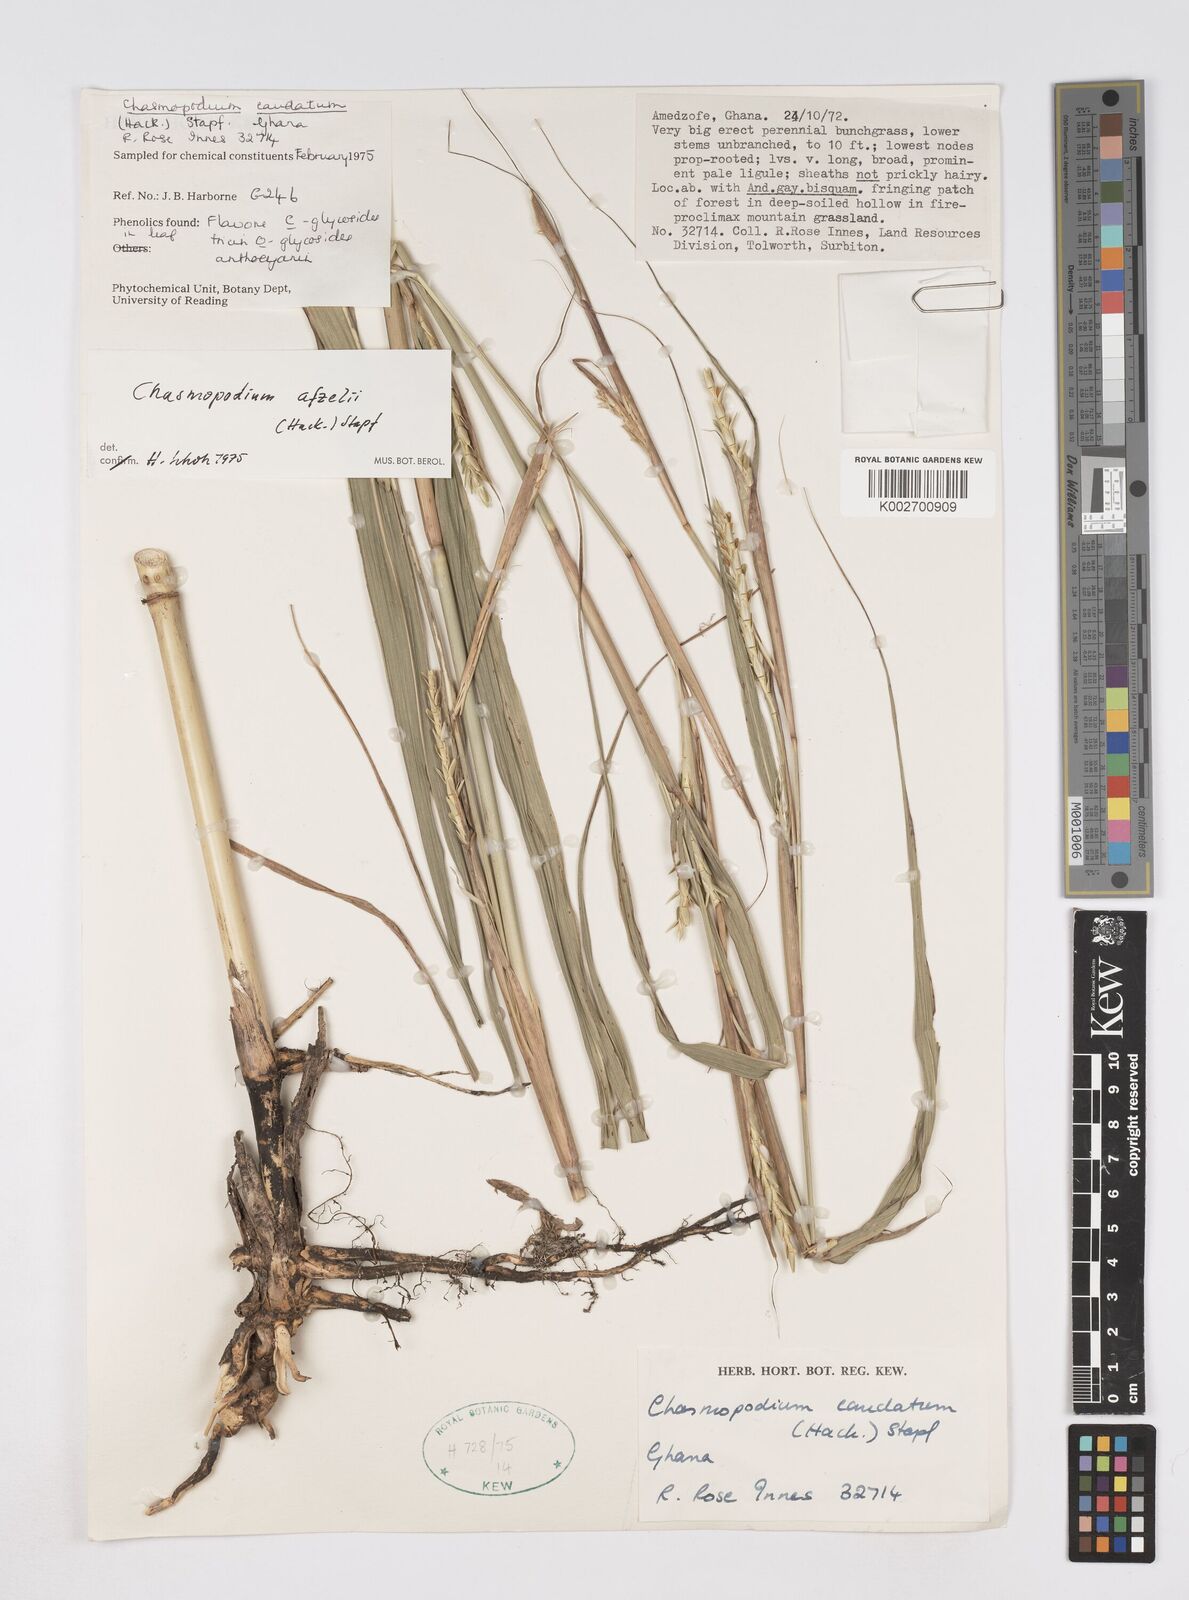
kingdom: Plantae
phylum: Tracheophyta
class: Liliopsida
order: Poales
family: Poaceae
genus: Chasmopodium
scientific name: Chasmopodium afzelii
